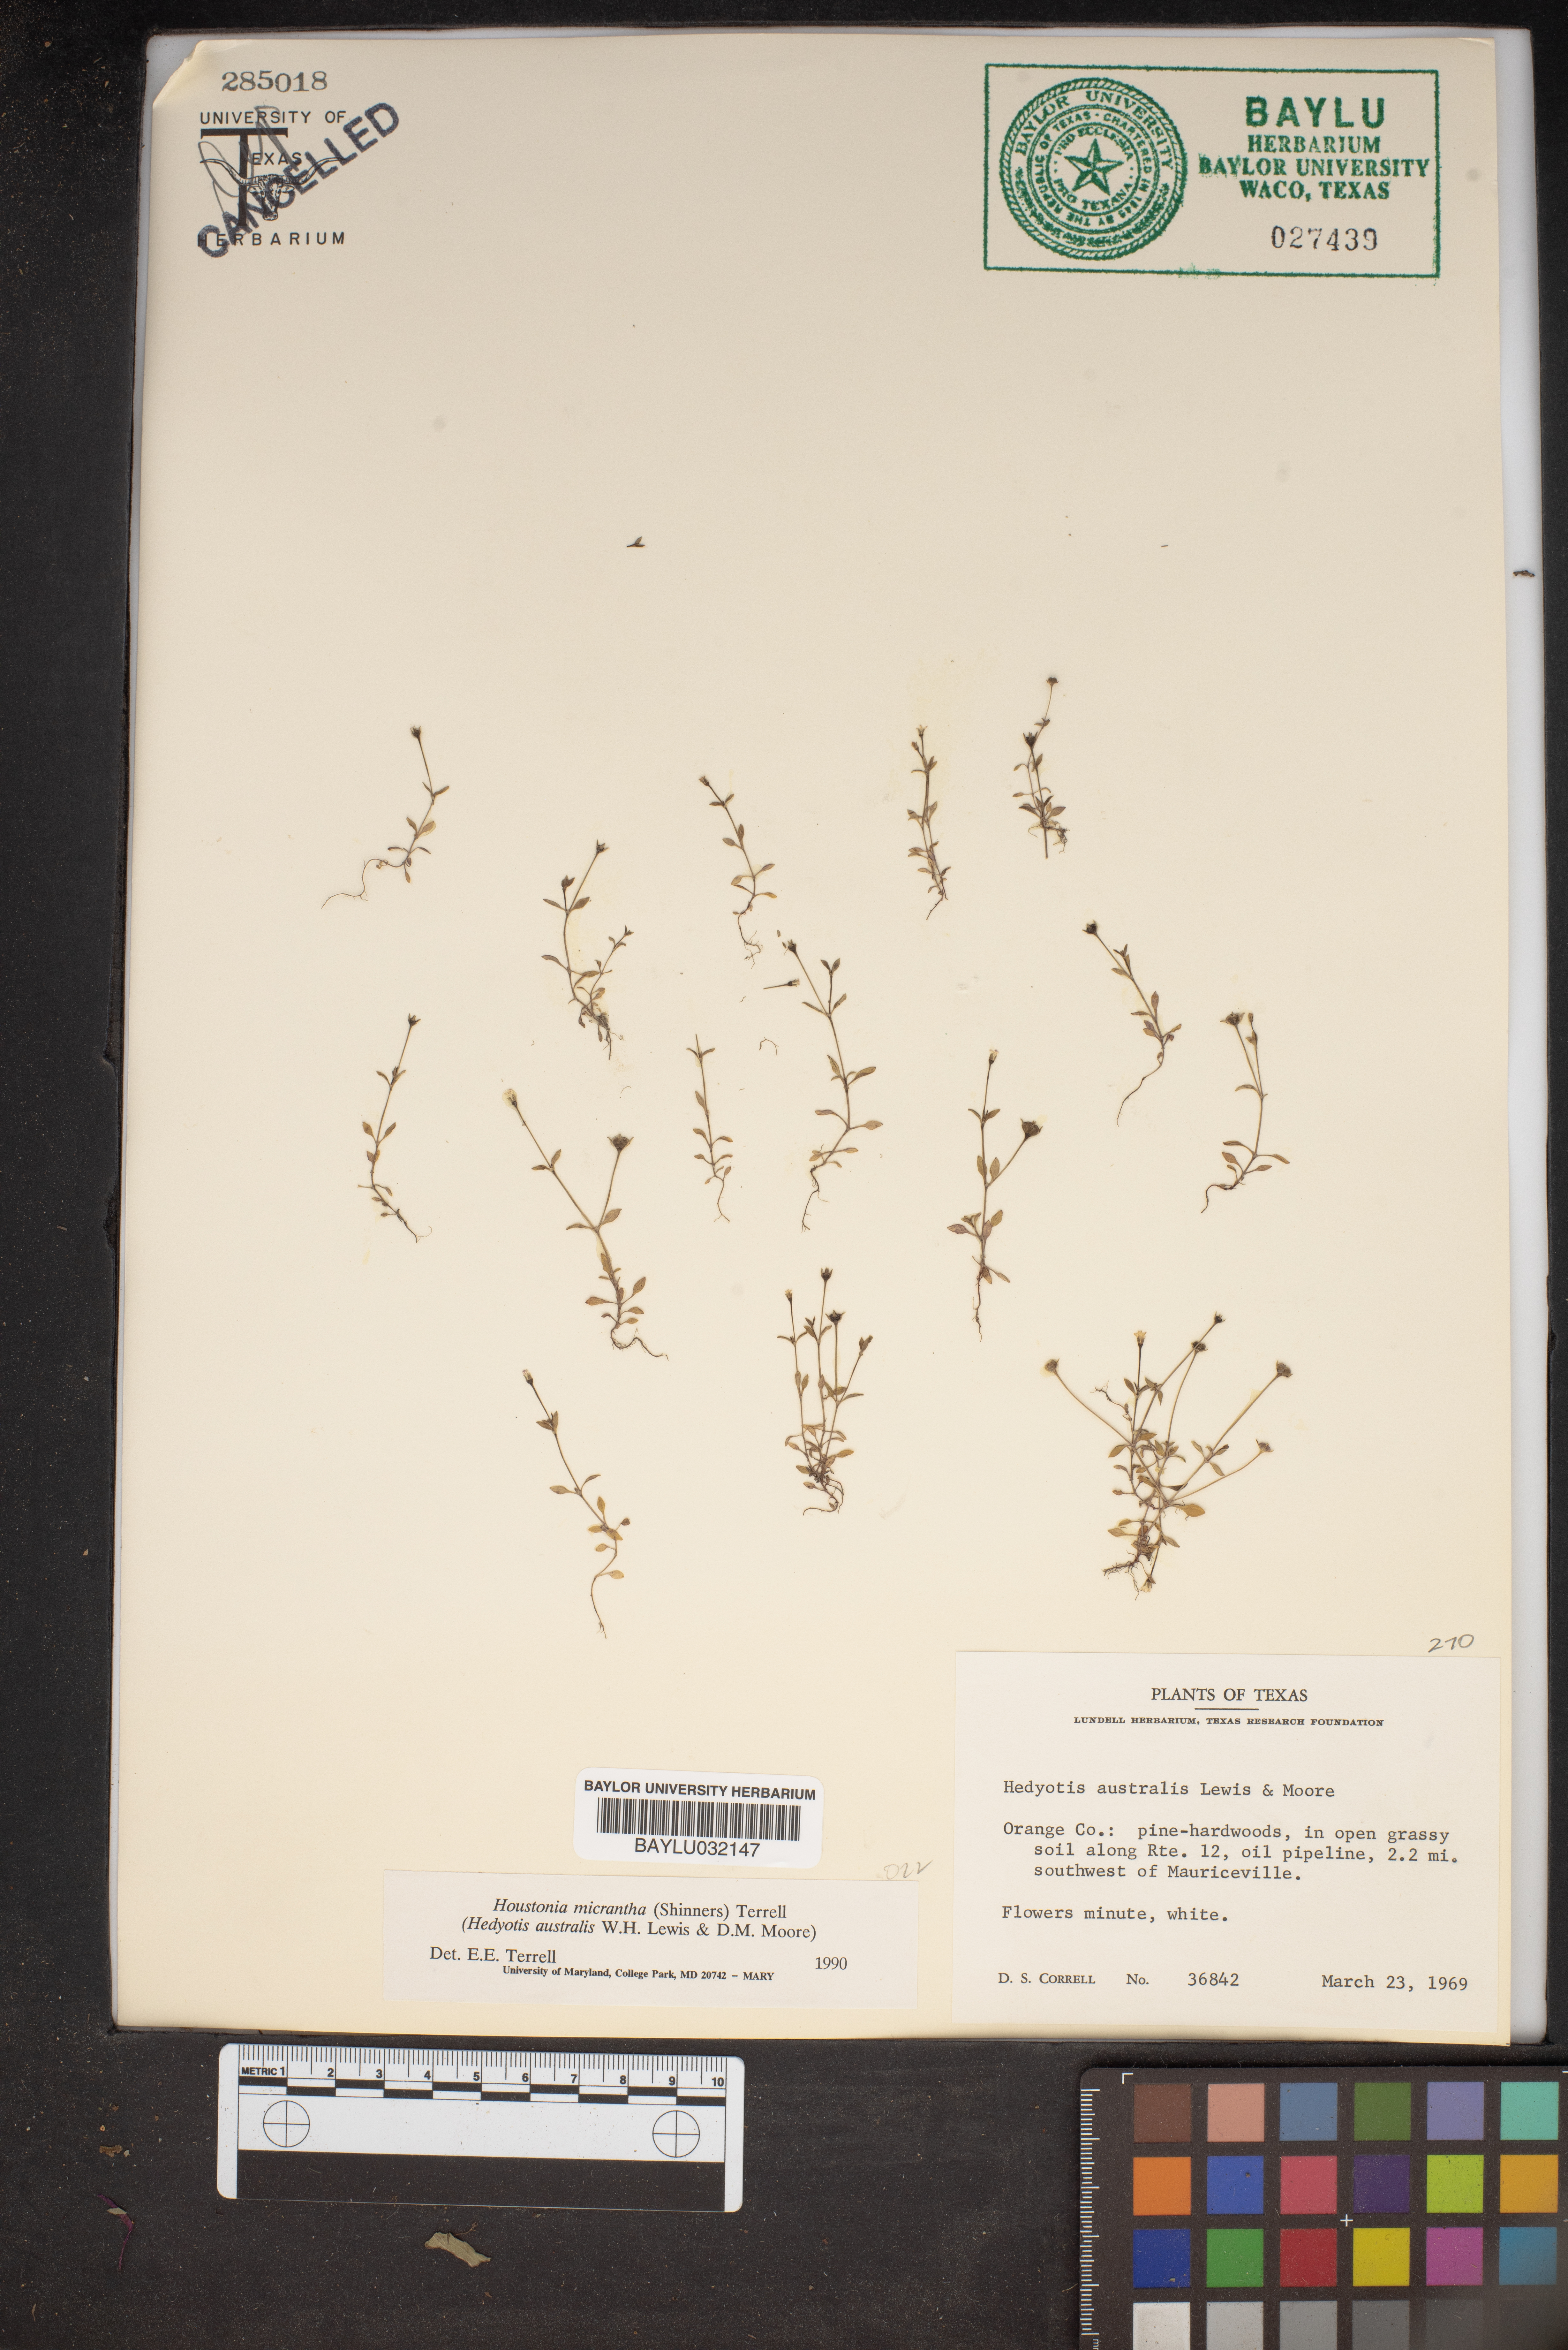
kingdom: Plantae
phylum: Tracheophyta
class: Magnoliopsida
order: Gentianales
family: Rubiaceae
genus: Houstonia
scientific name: Houstonia micrantha
